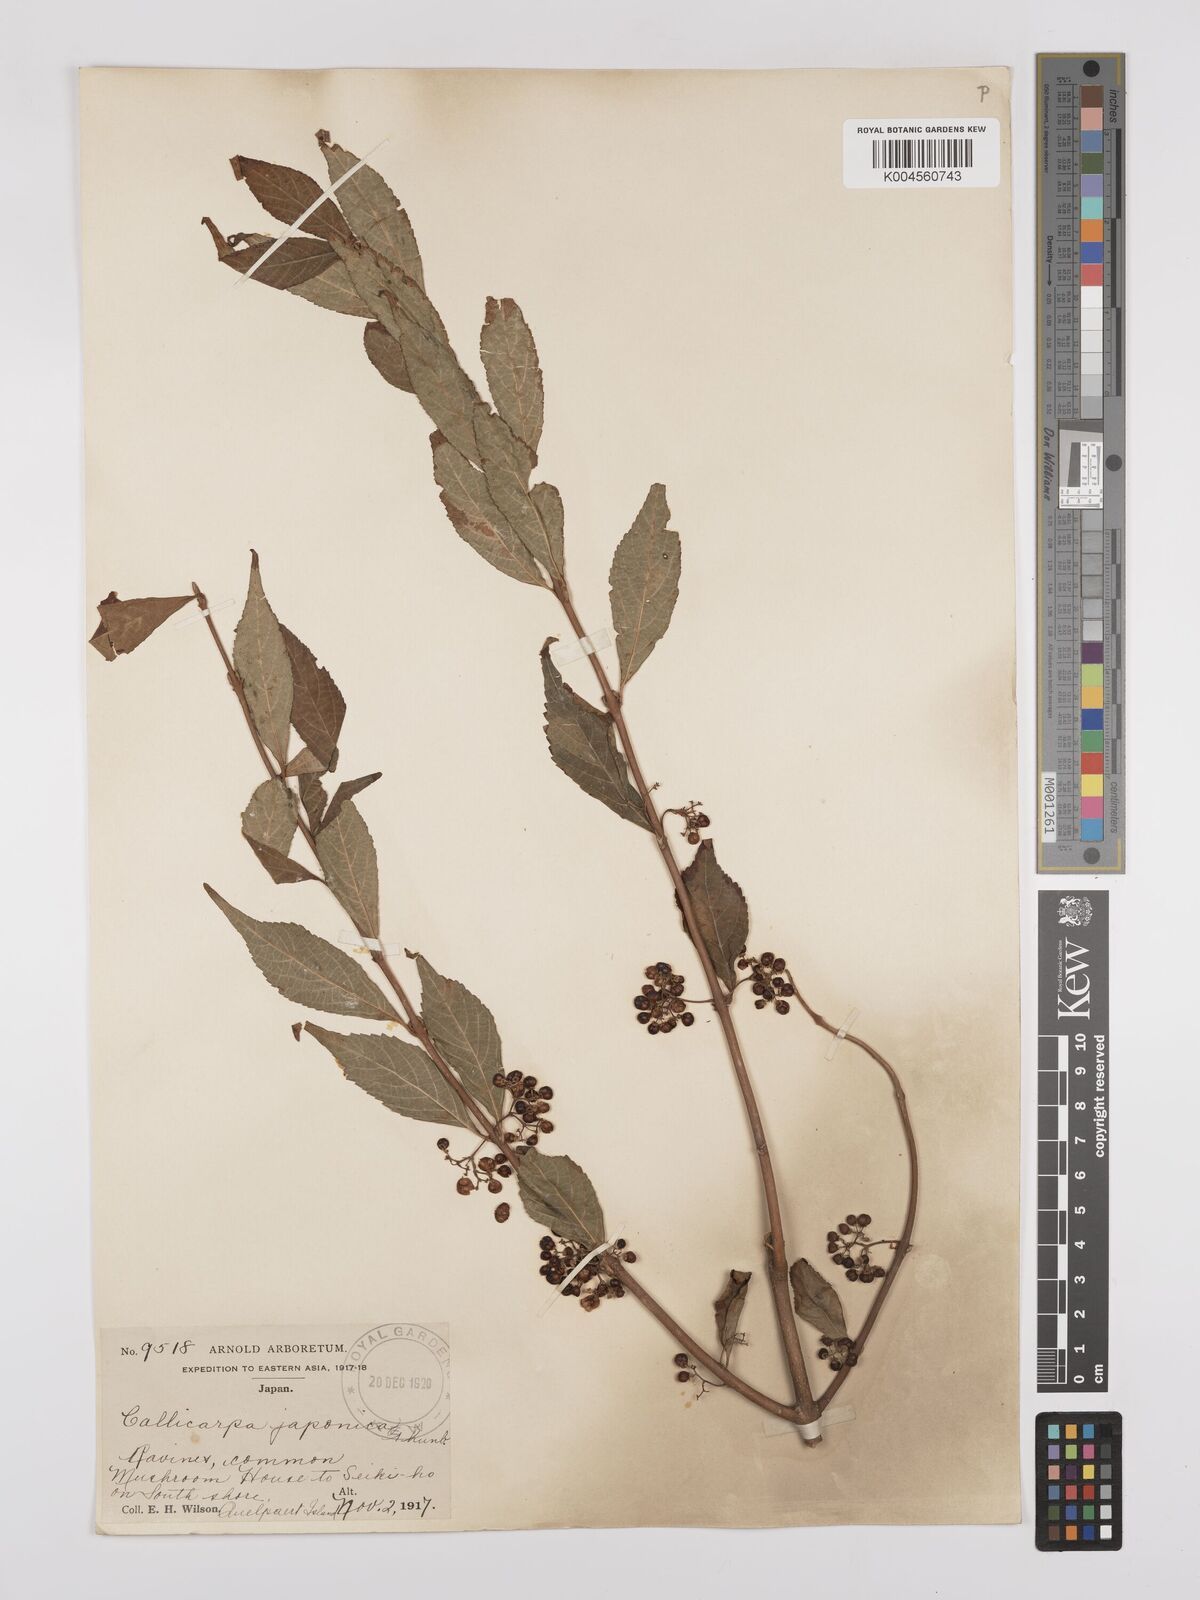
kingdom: Plantae
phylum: Tracheophyta
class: Magnoliopsida
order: Lamiales
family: Lamiaceae
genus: Callicarpa
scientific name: Callicarpa japonica
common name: Japanese beauty-berry
